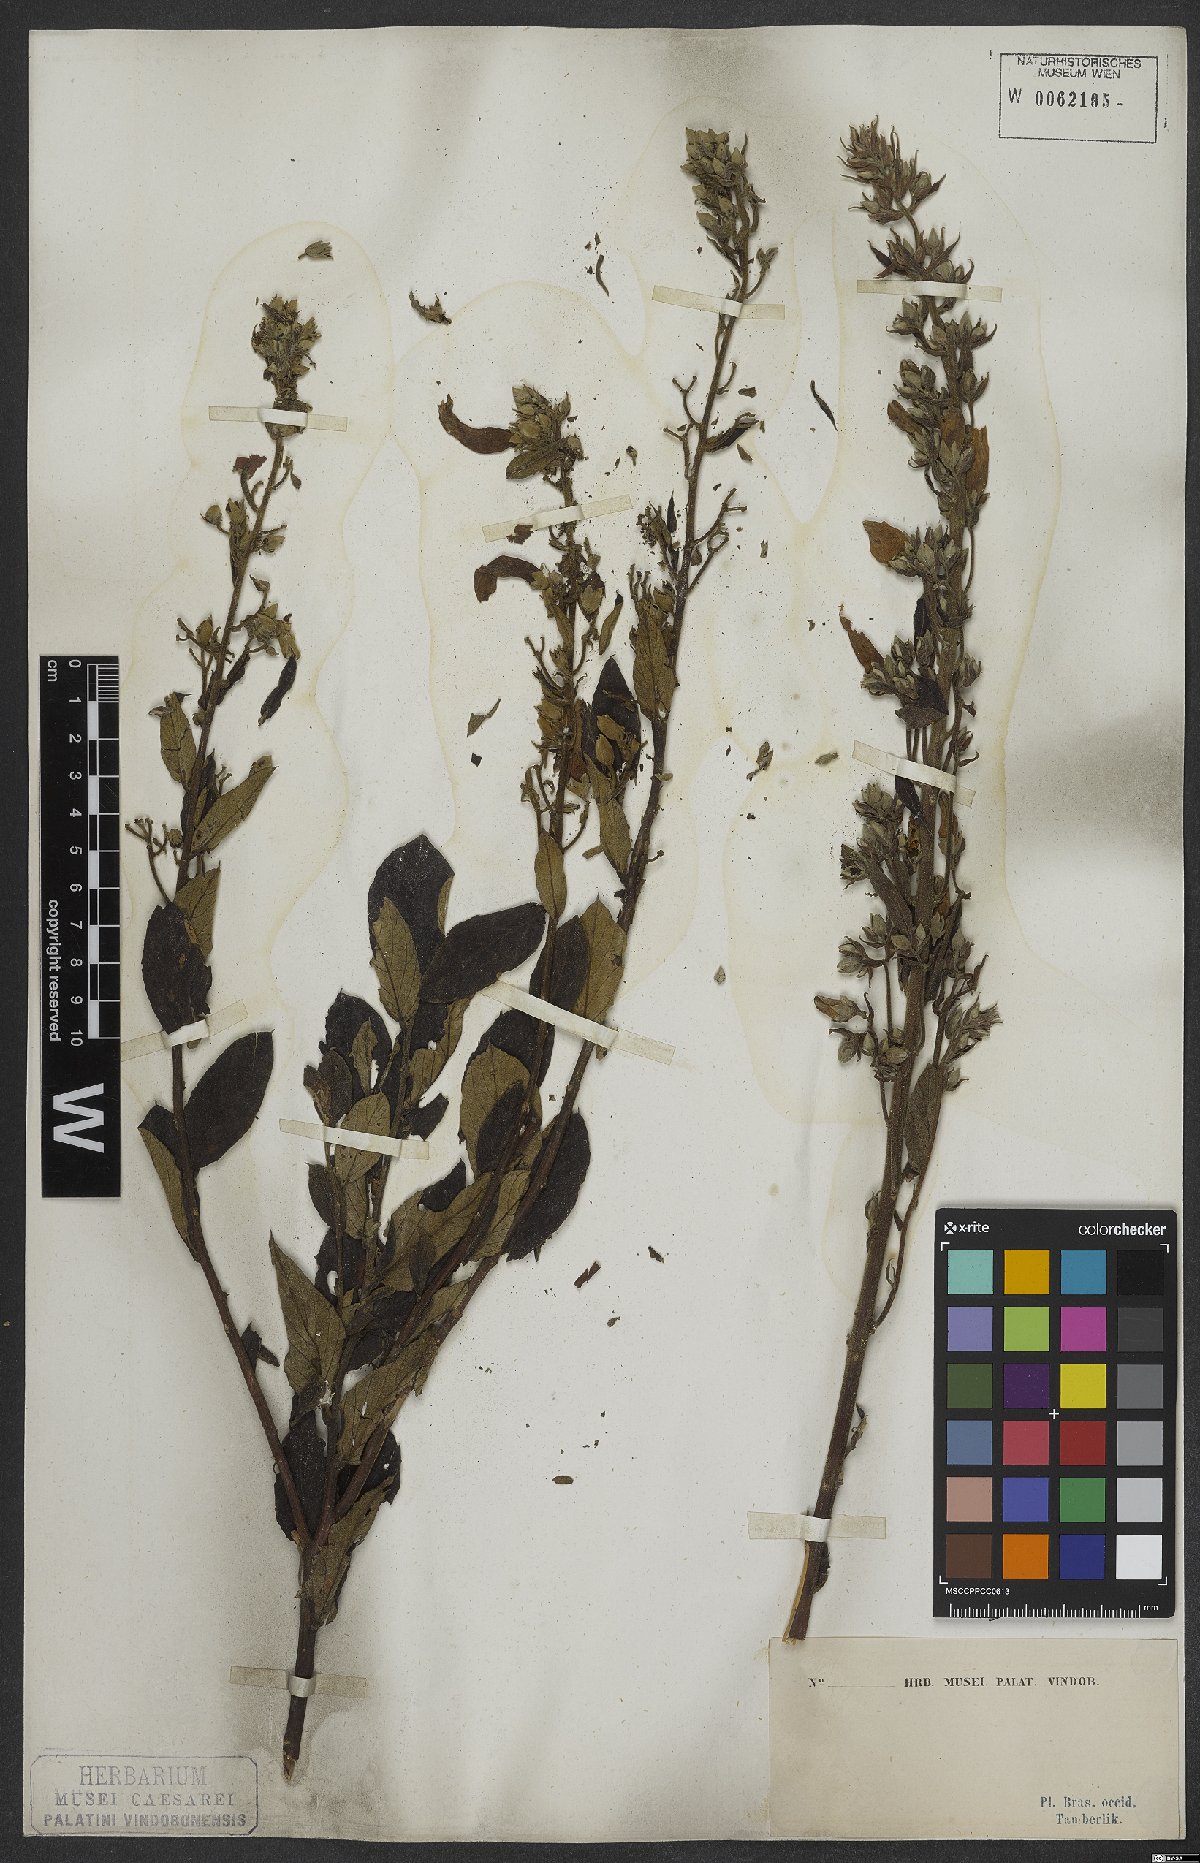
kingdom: Plantae
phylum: Tracheophyta
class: Magnoliopsida
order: Solanales
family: Convolvulaceae
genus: Ipomoea
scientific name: Ipomoea haenkeana
